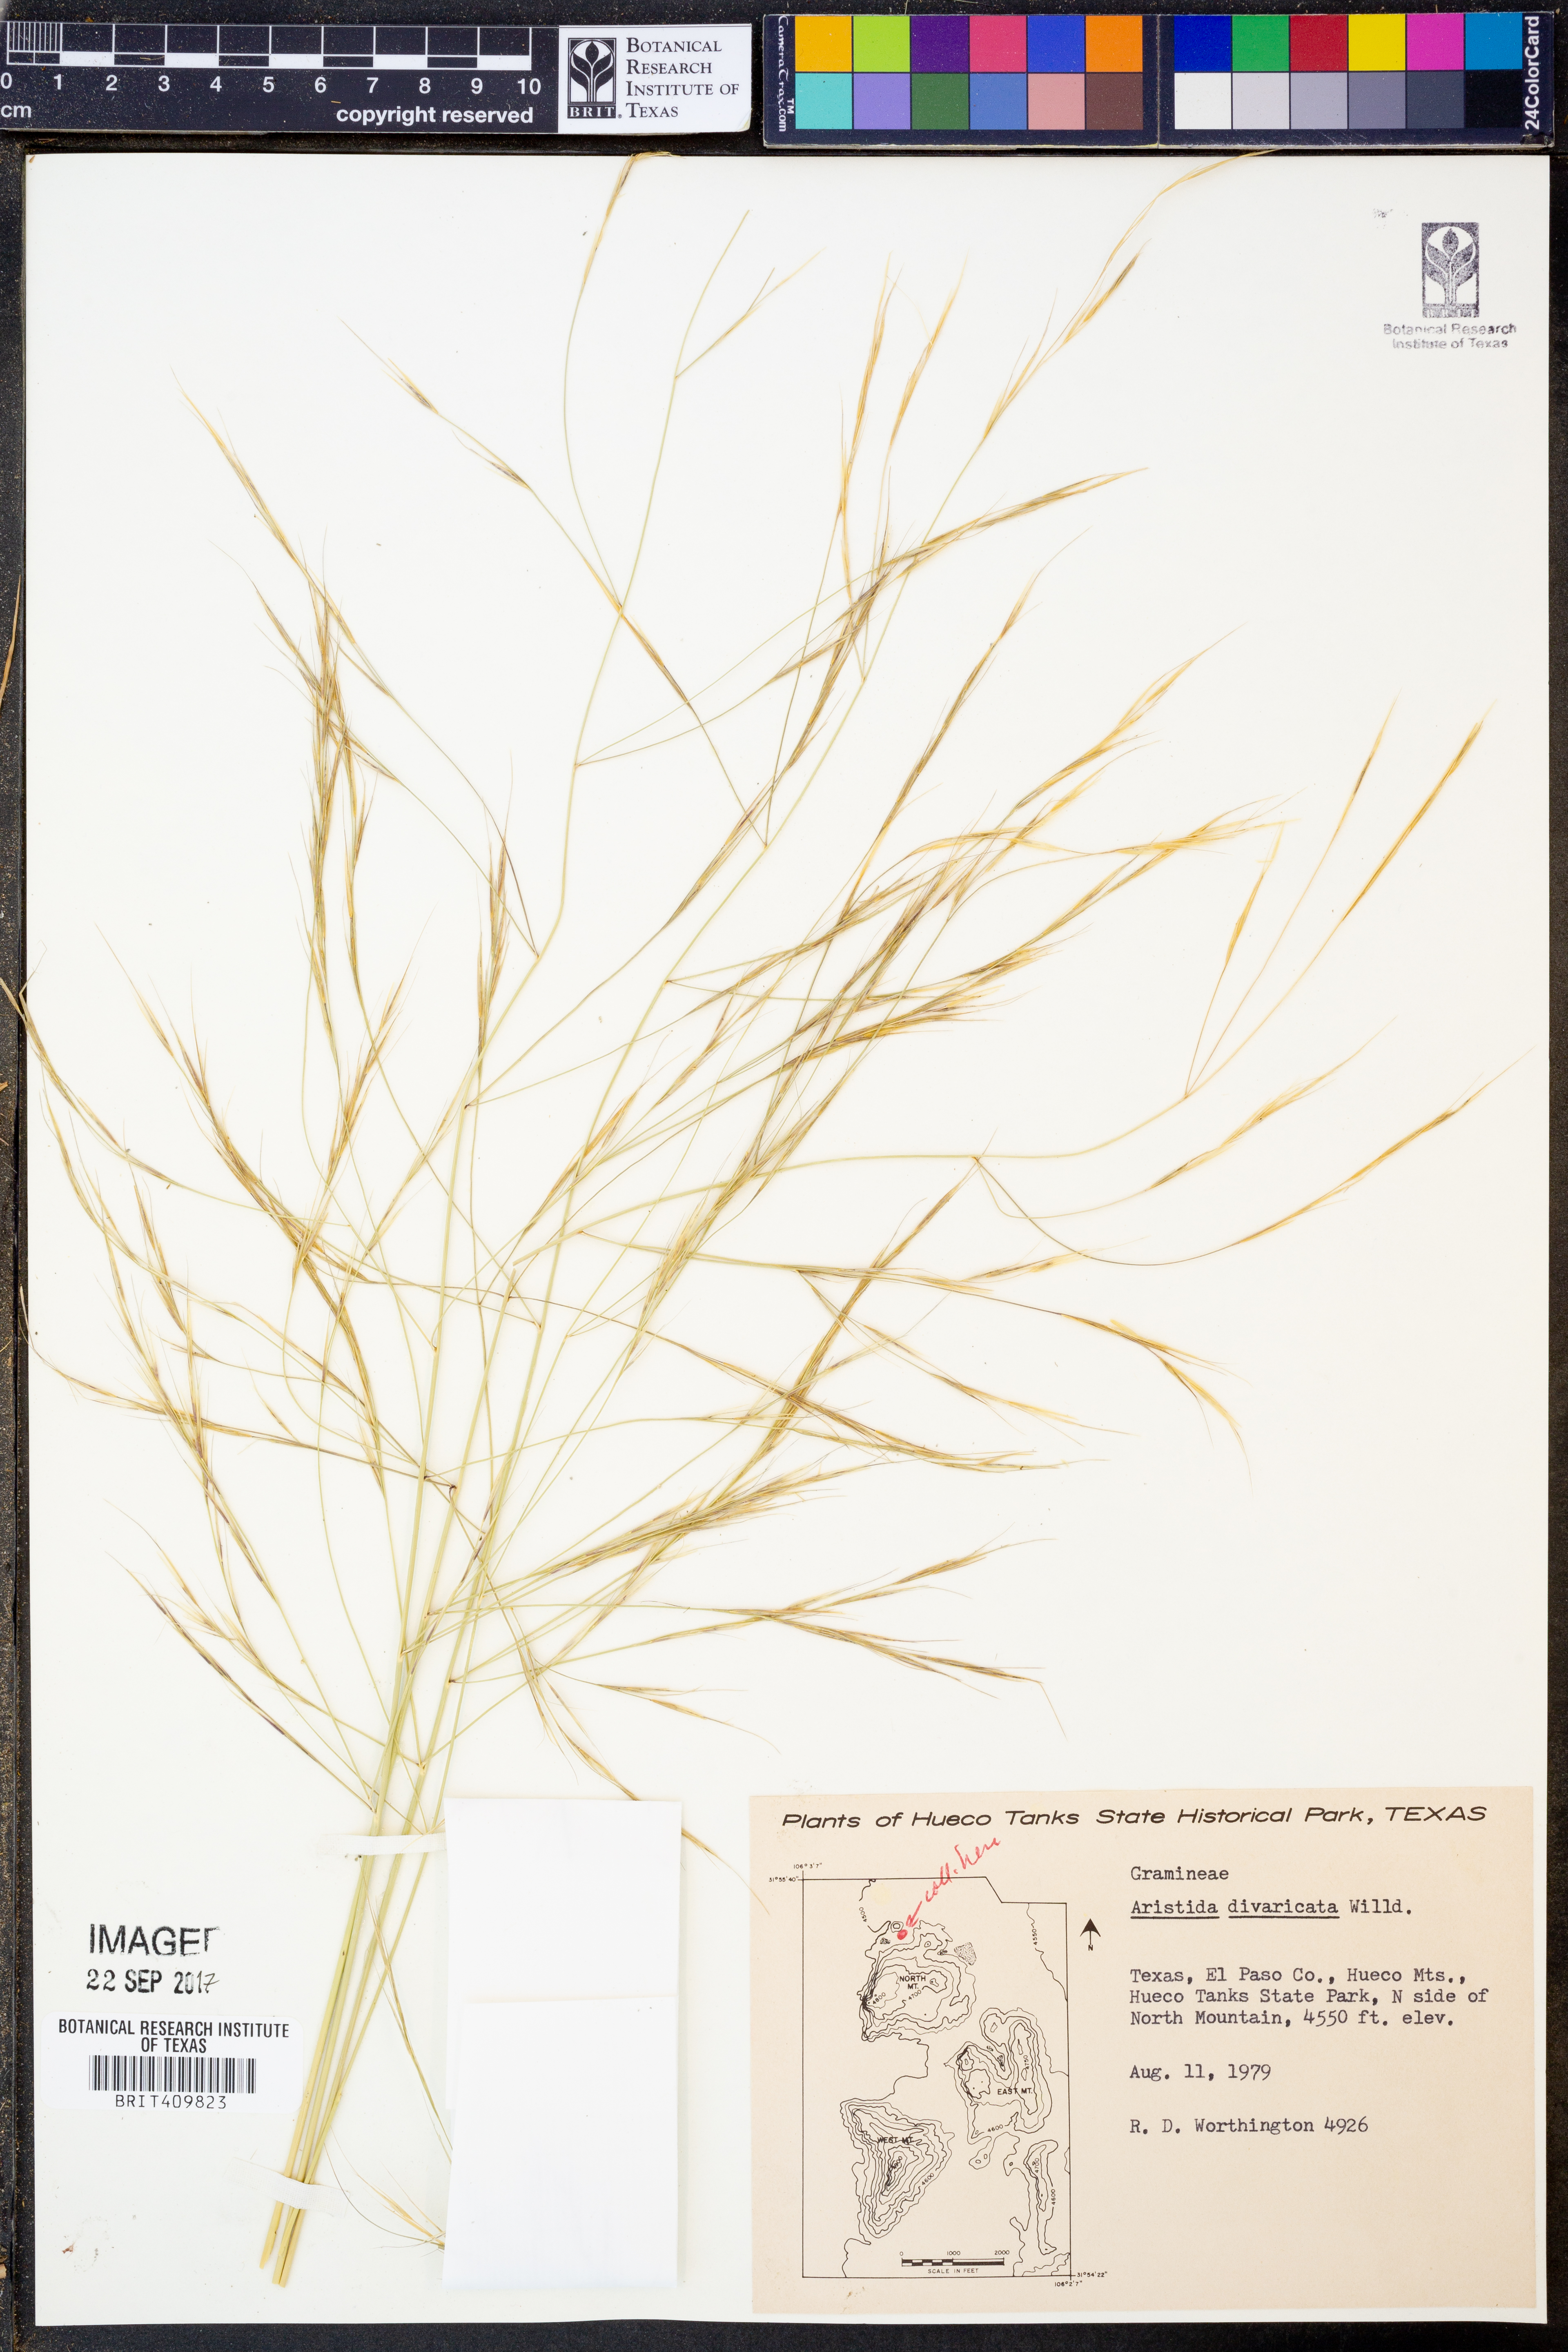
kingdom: Plantae
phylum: Tracheophyta
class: Liliopsida
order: Poales
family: Poaceae
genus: Aristida
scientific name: Aristida divaricata
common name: Poverty grass
